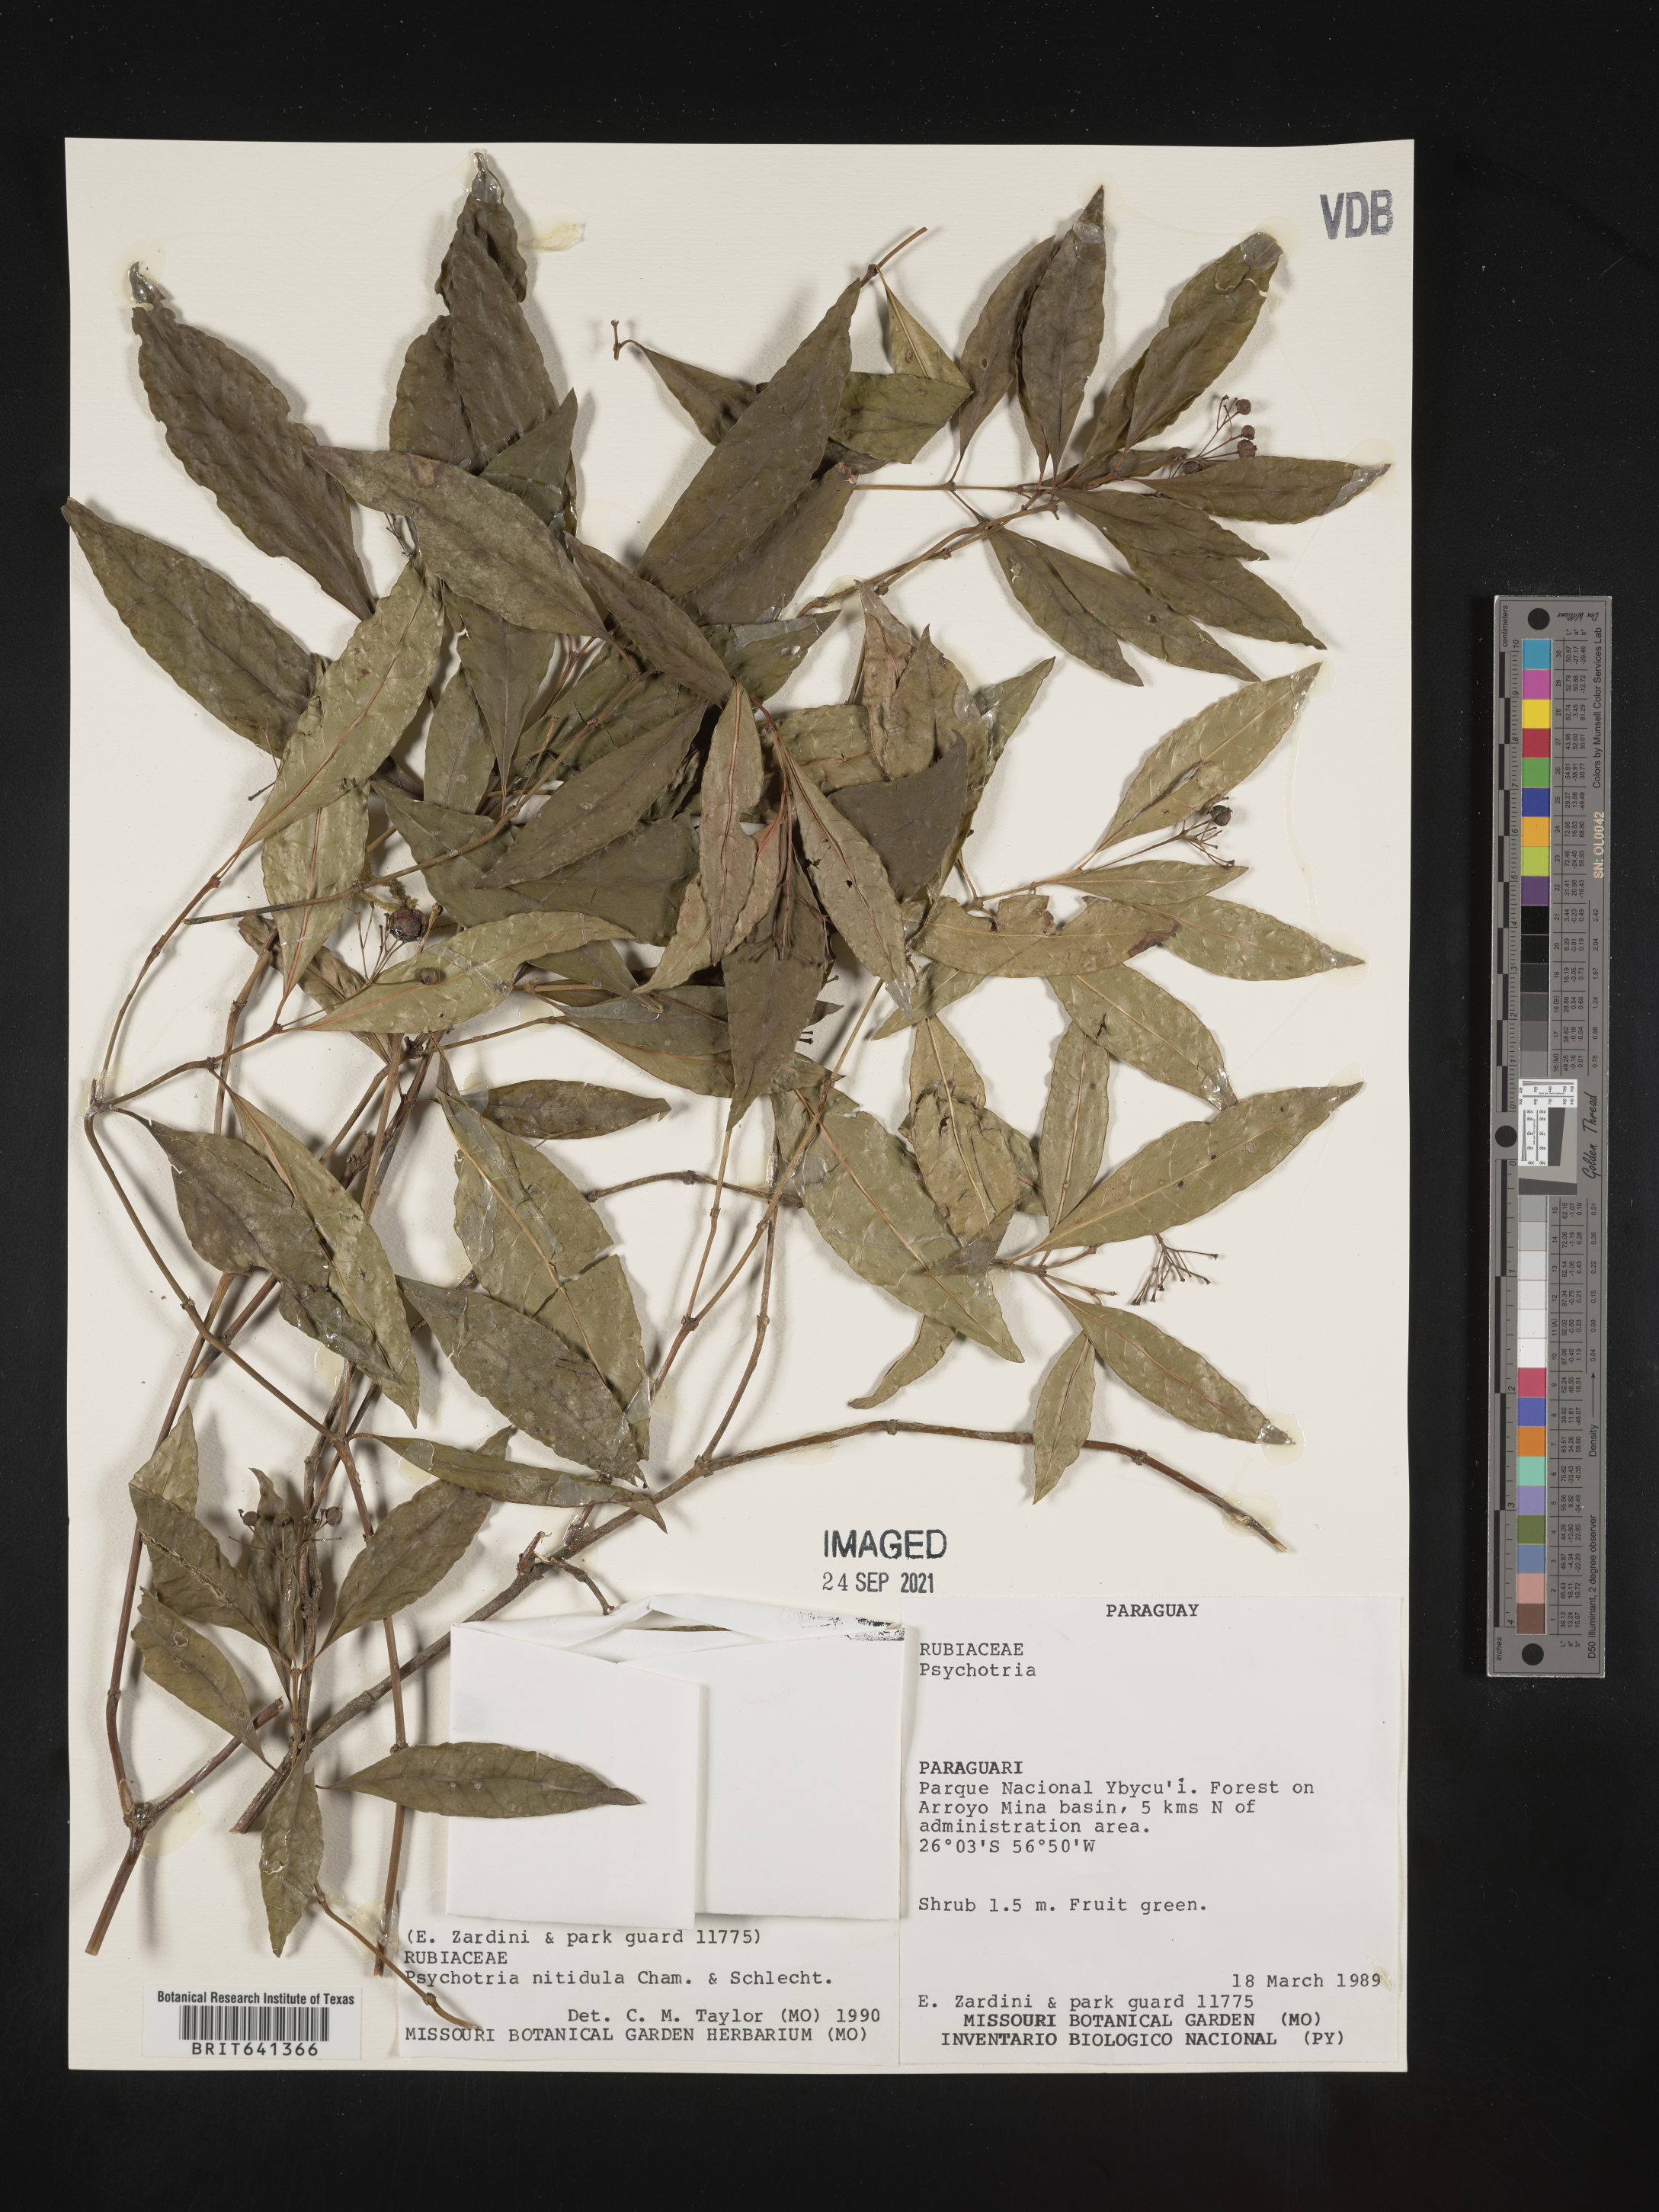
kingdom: Plantae
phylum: Tracheophyta
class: Magnoliopsida
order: Gentianales
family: Rubiaceae
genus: Psychotria
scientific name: Psychotria
